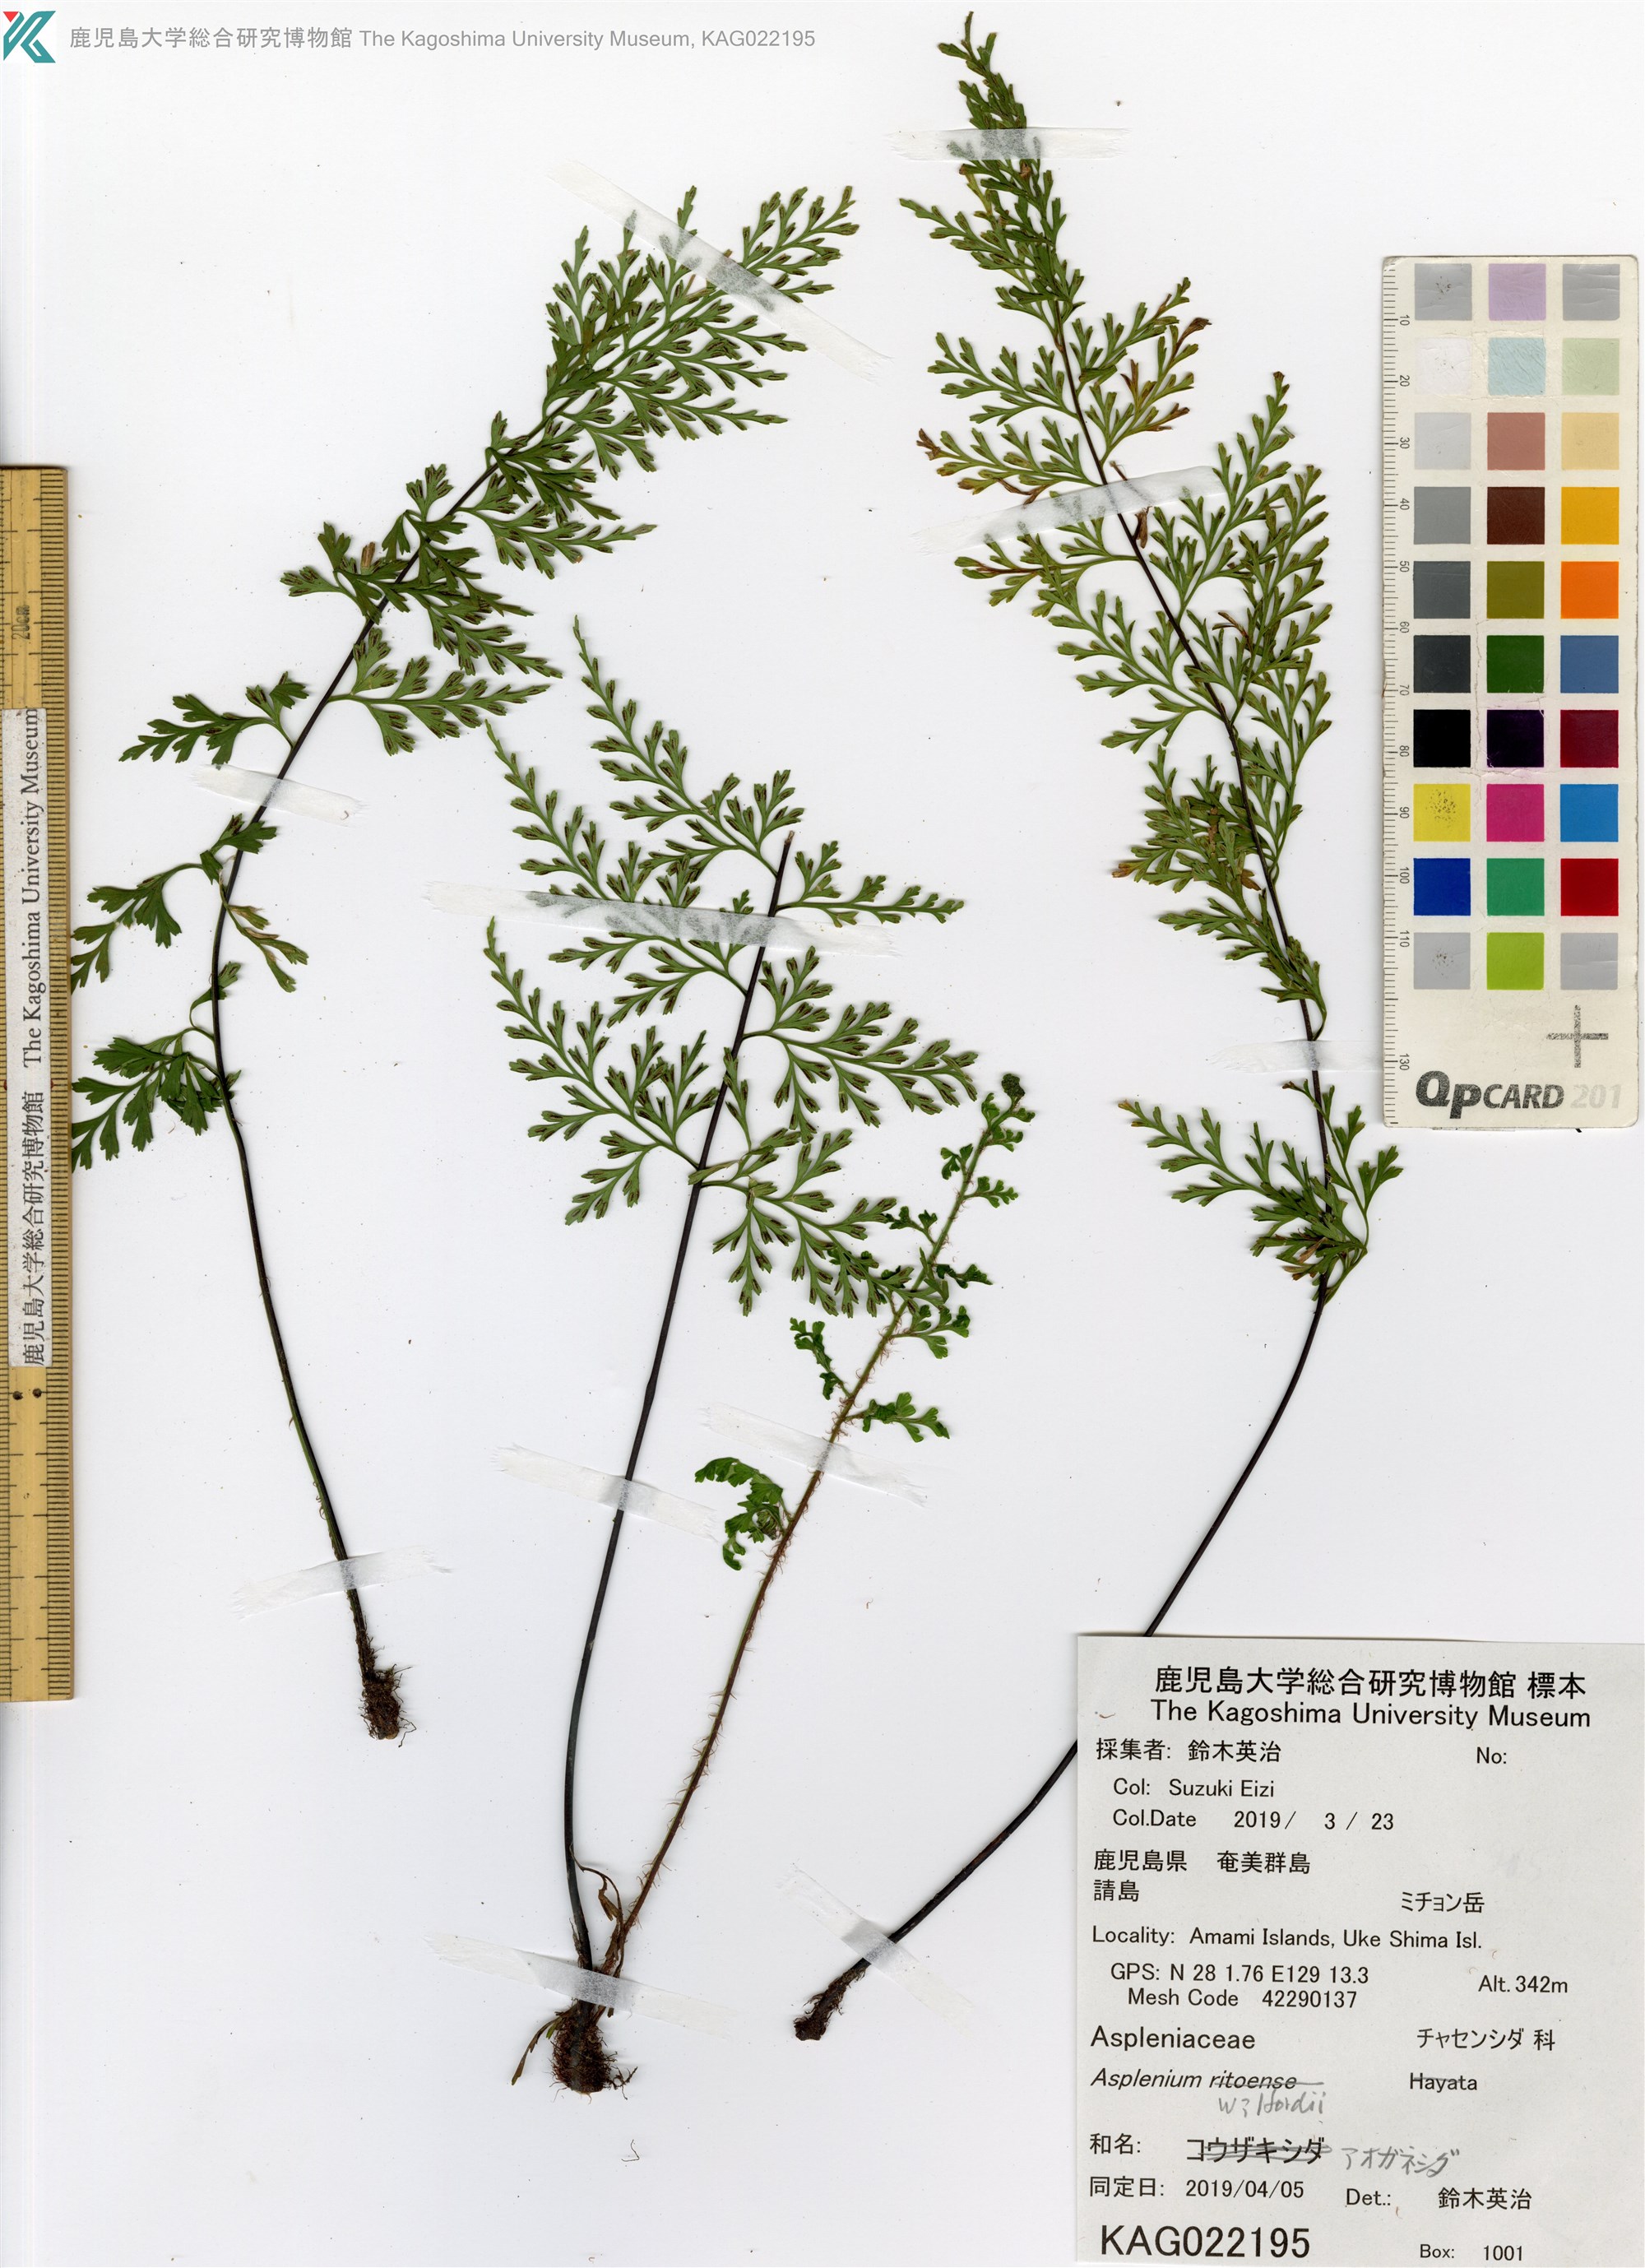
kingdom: Plantae
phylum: Tracheophyta
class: Polypodiopsida
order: Polypodiales
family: Aspleniaceae
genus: Asplenium
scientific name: Asplenium wilfordii
